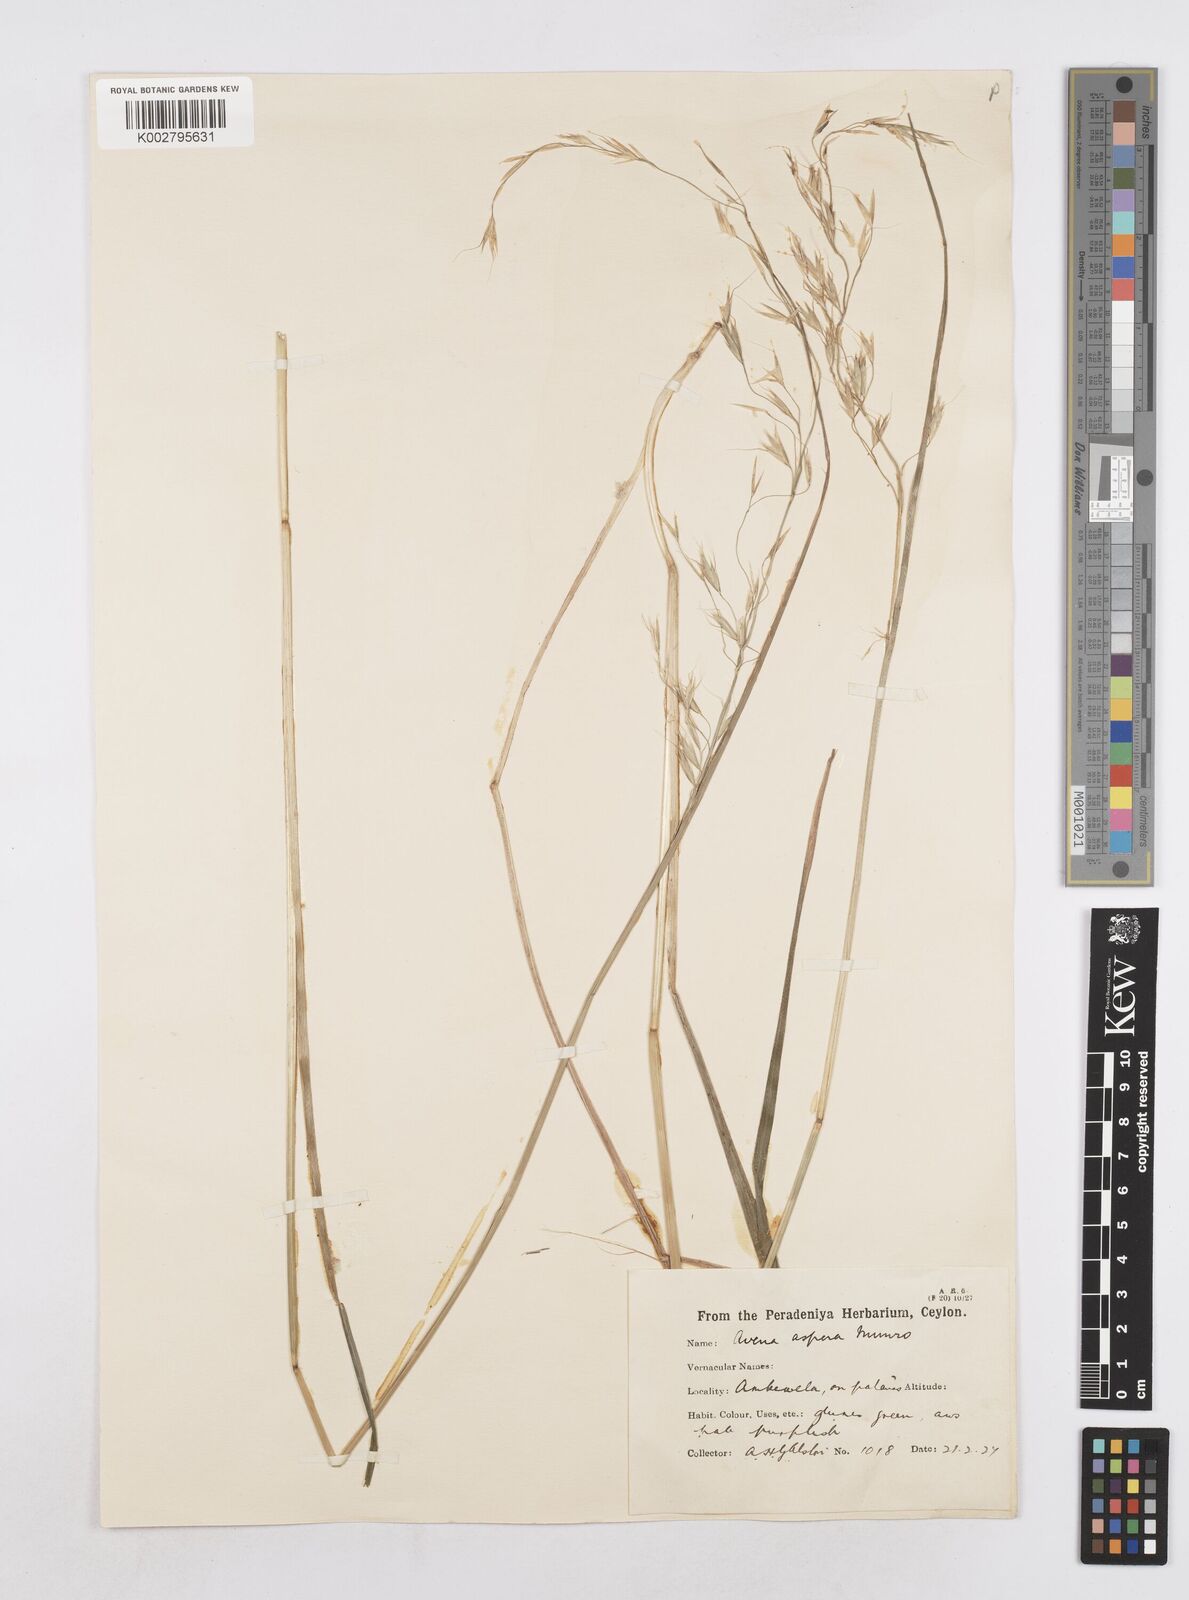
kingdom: Plantae
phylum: Tracheophyta
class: Liliopsida
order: Poales
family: Poaceae
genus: Trisetopsis
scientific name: Trisetopsis virescens
